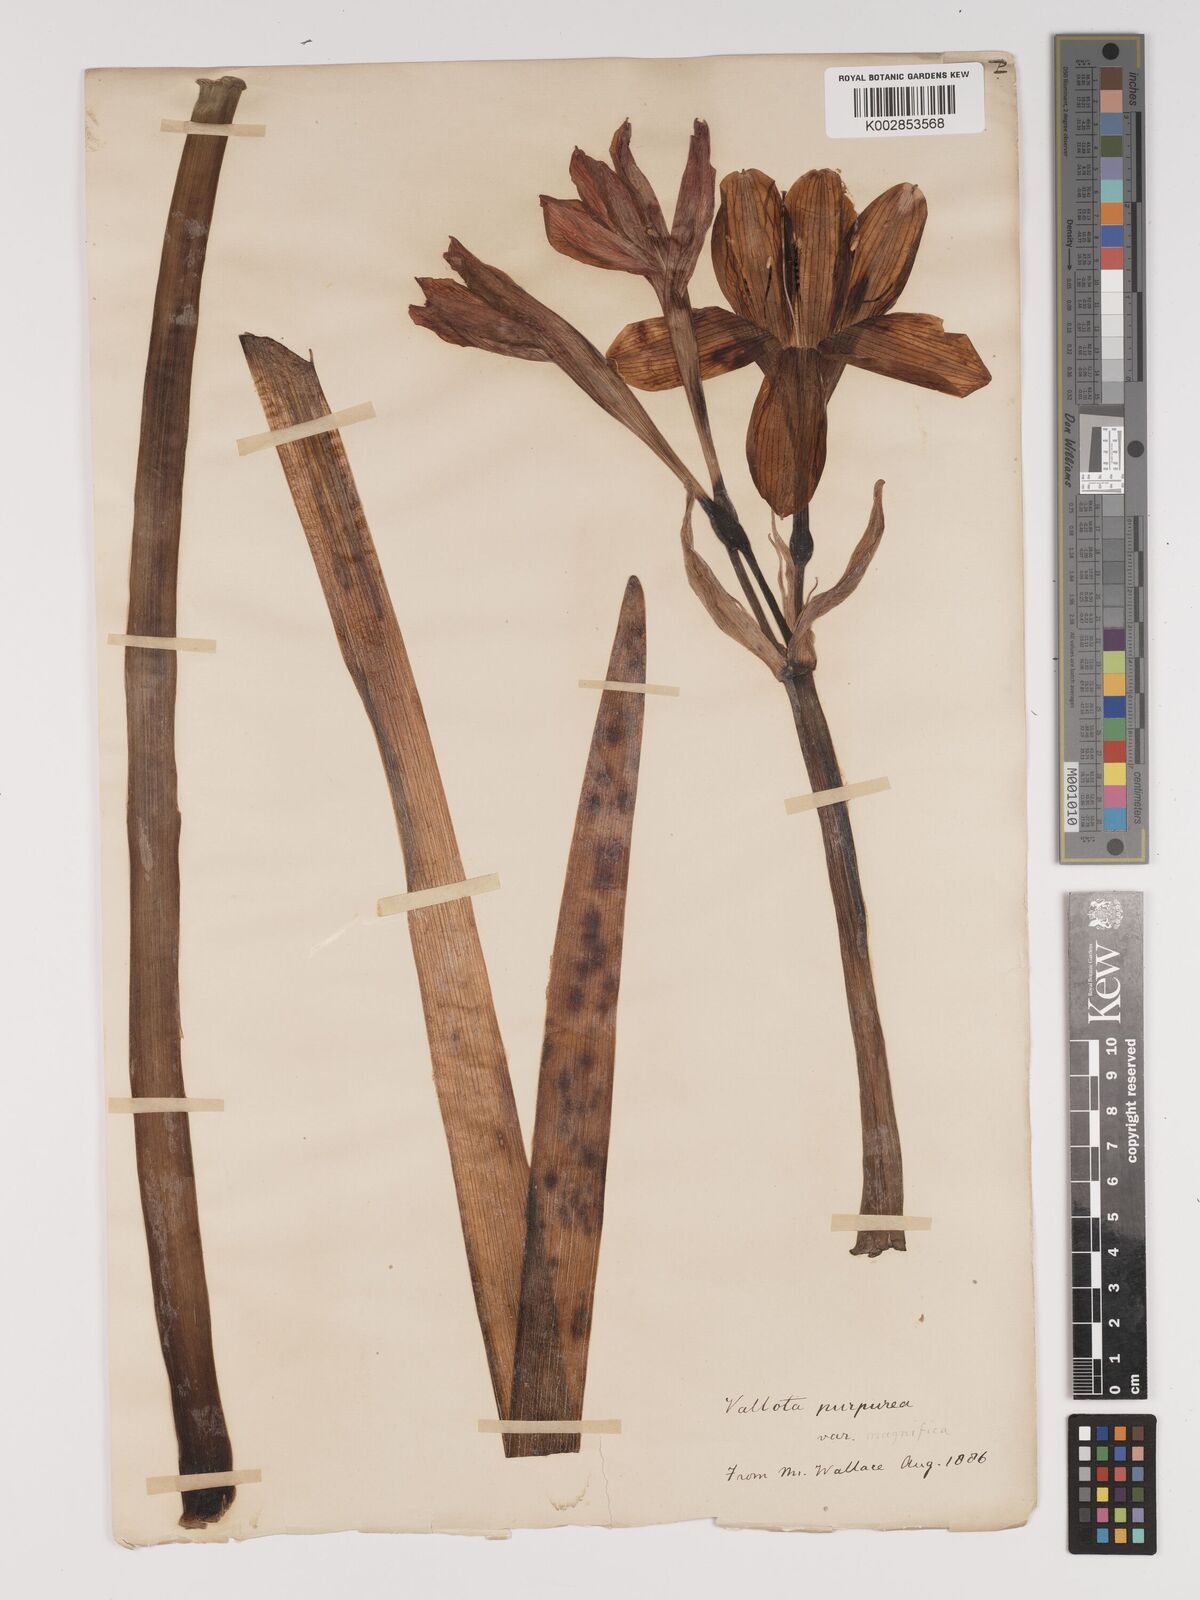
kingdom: Plantae
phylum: Tracheophyta
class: Liliopsida
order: Asparagales
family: Amaryllidaceae
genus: Cyrtanthus
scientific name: Cyrtanthus elatus
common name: Scarborough-lily
